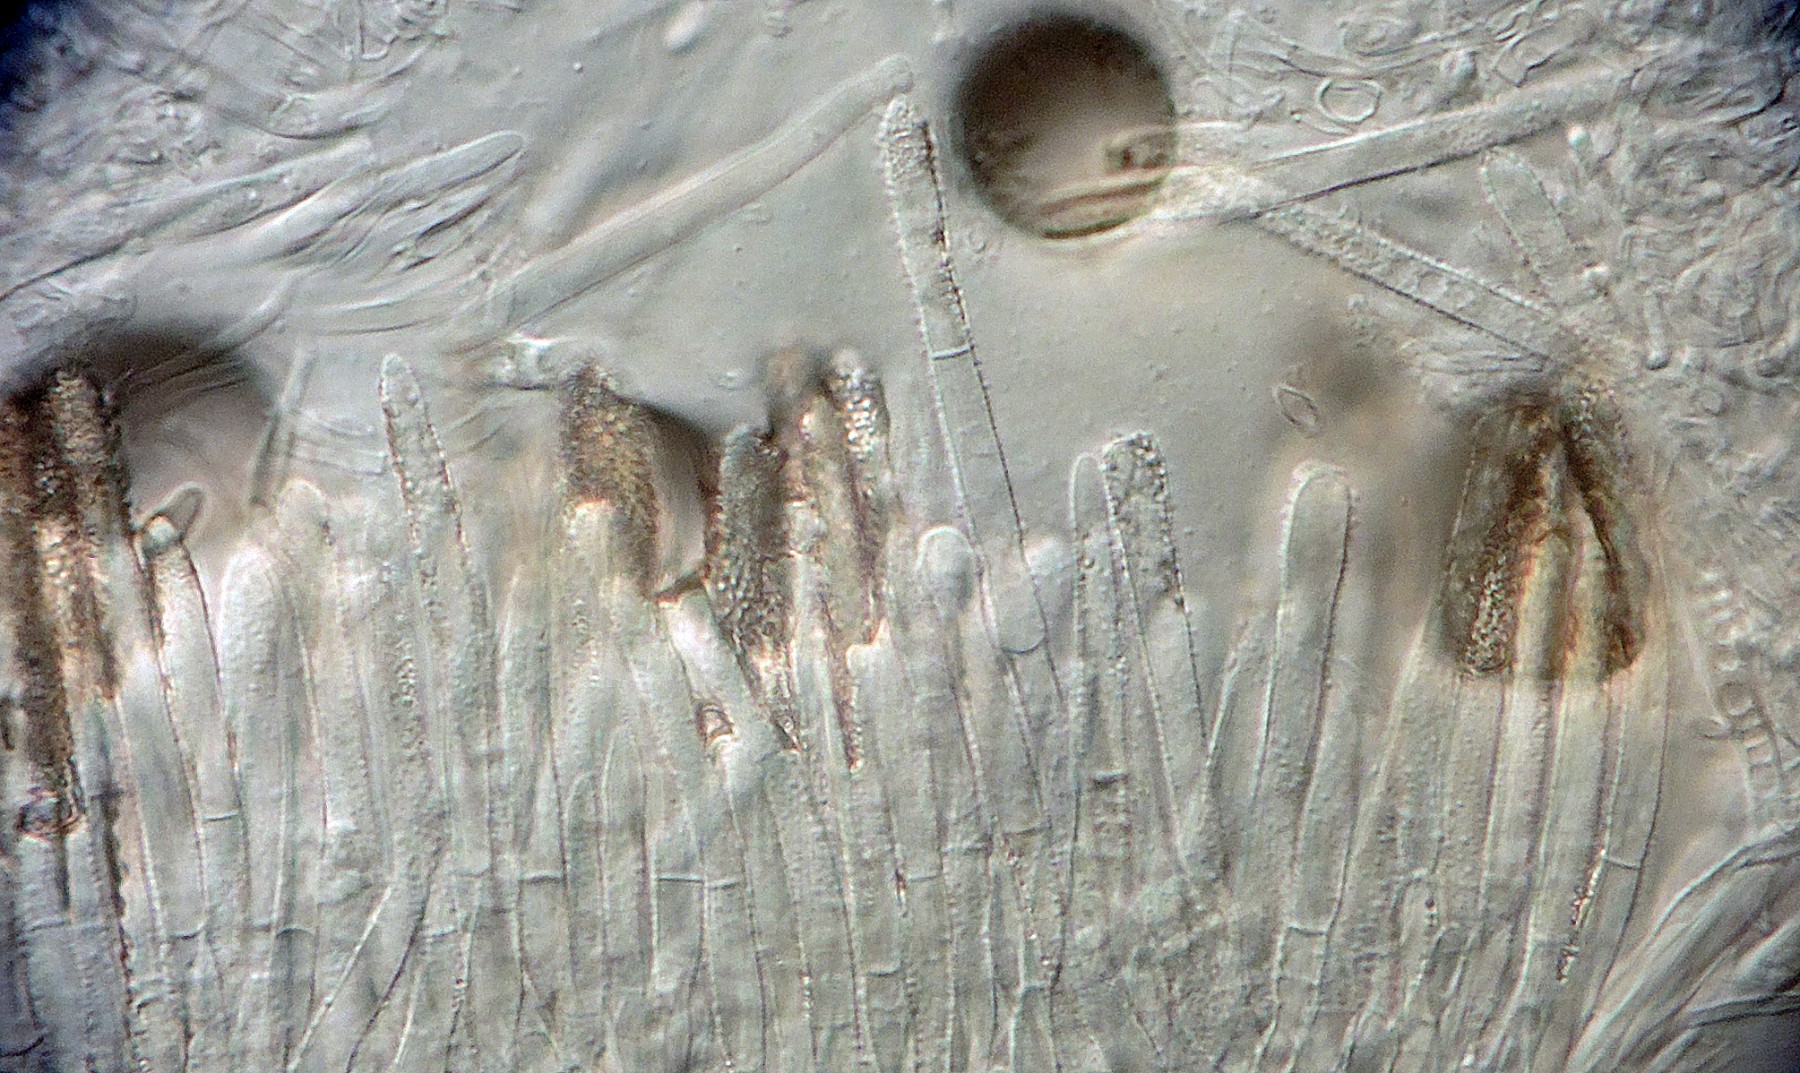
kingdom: Fungi
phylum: Ascomycota
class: Leotiomycetes
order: Helotiales
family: Lachnaceae
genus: Lachnum
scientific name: Lachnum
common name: frynseskive
